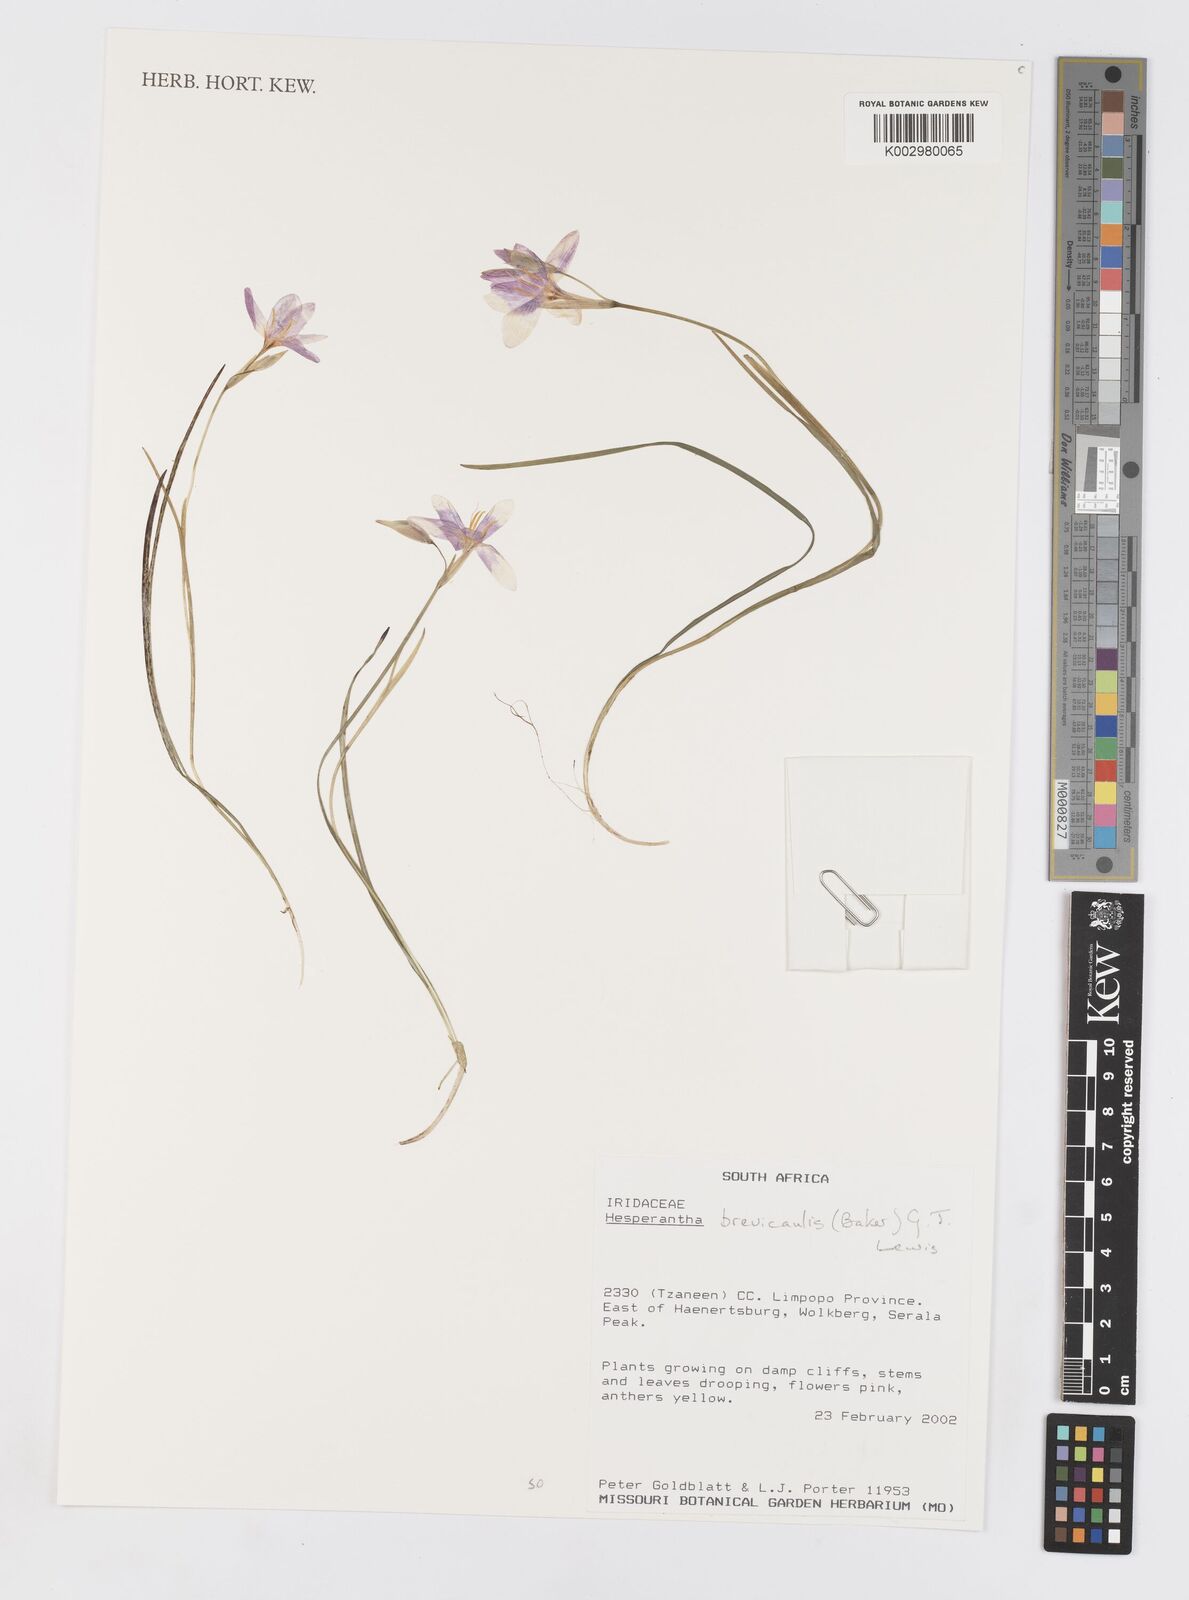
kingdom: Plantae
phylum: Tracheophyta
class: Liliopsida
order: Asparagales
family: Iridaceae
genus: Hesperantha
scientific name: Hesperantha brevicaulis
